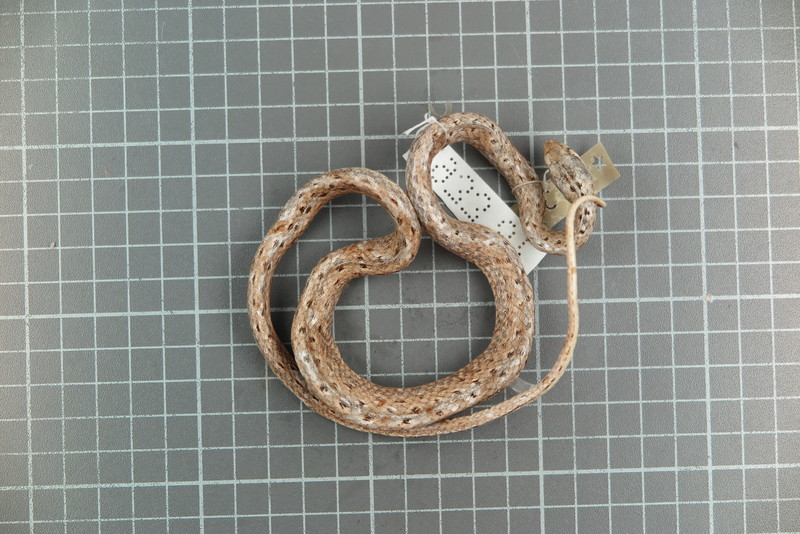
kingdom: Animalia
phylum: Chordata
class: Squamata
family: Psammophiidae
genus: Mimophis
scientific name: Mimophis
